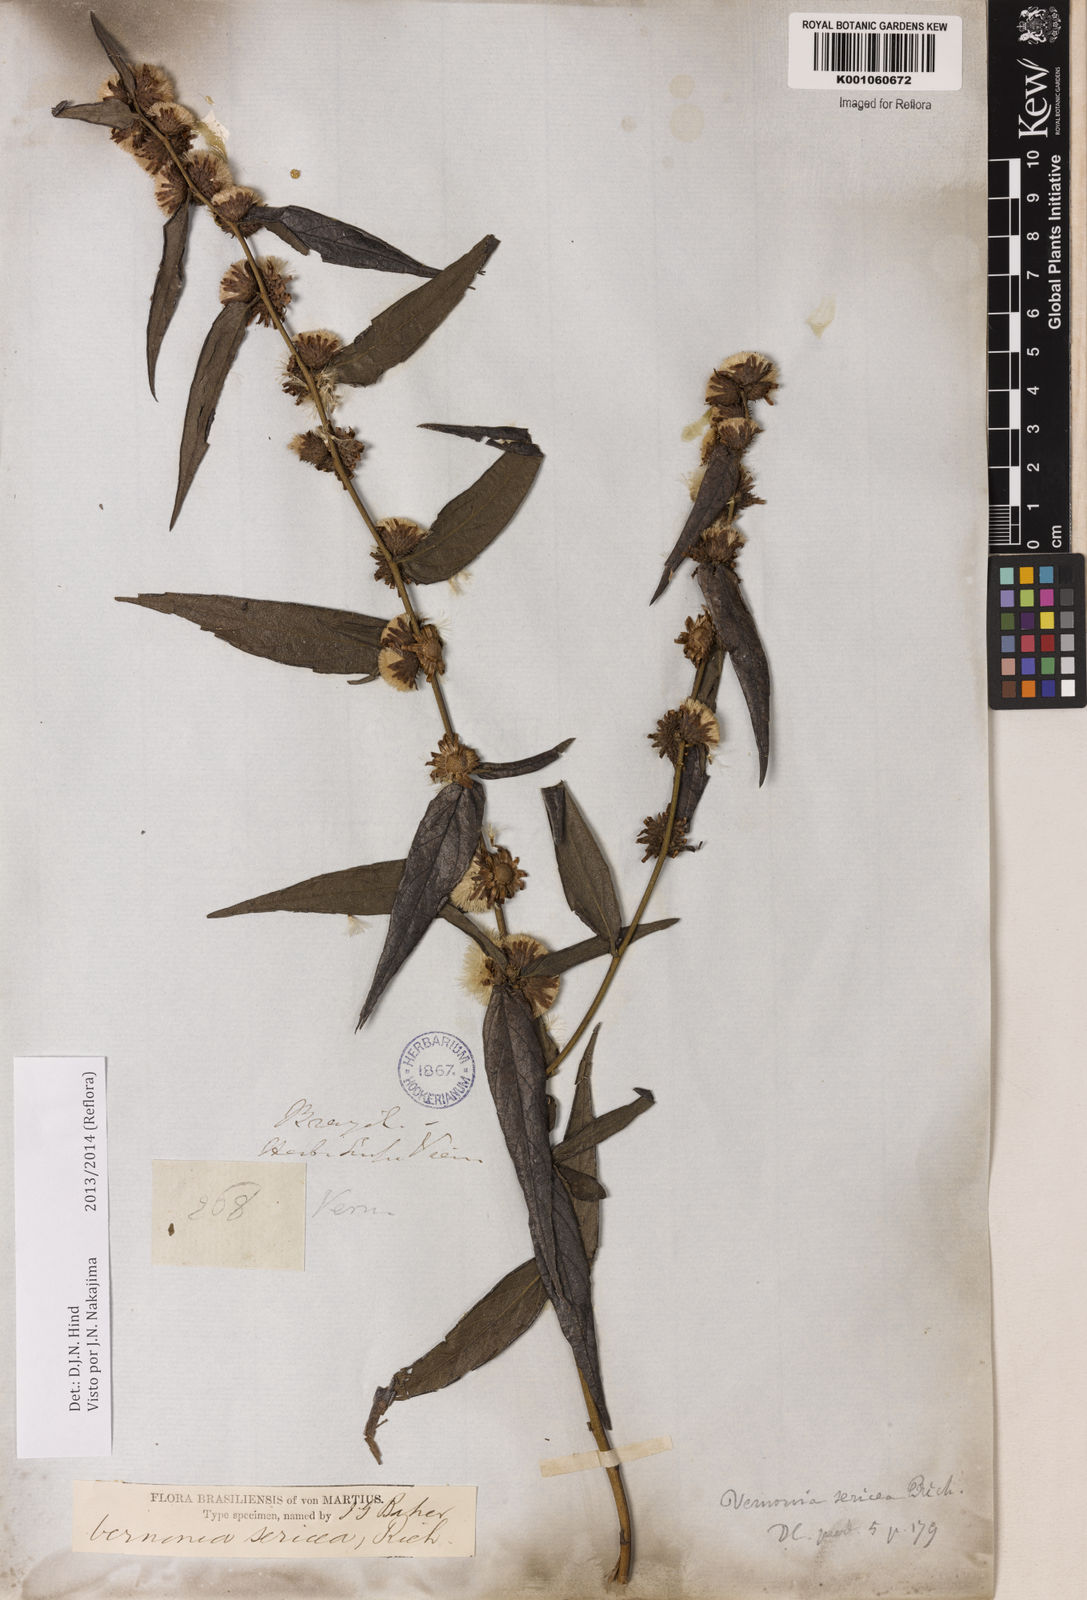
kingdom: Plantae
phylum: Tracheophyta
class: Magnoliopsida
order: Asterales
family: Asteraceae
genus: Lepidaploa
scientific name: Lepidaploa sericea
